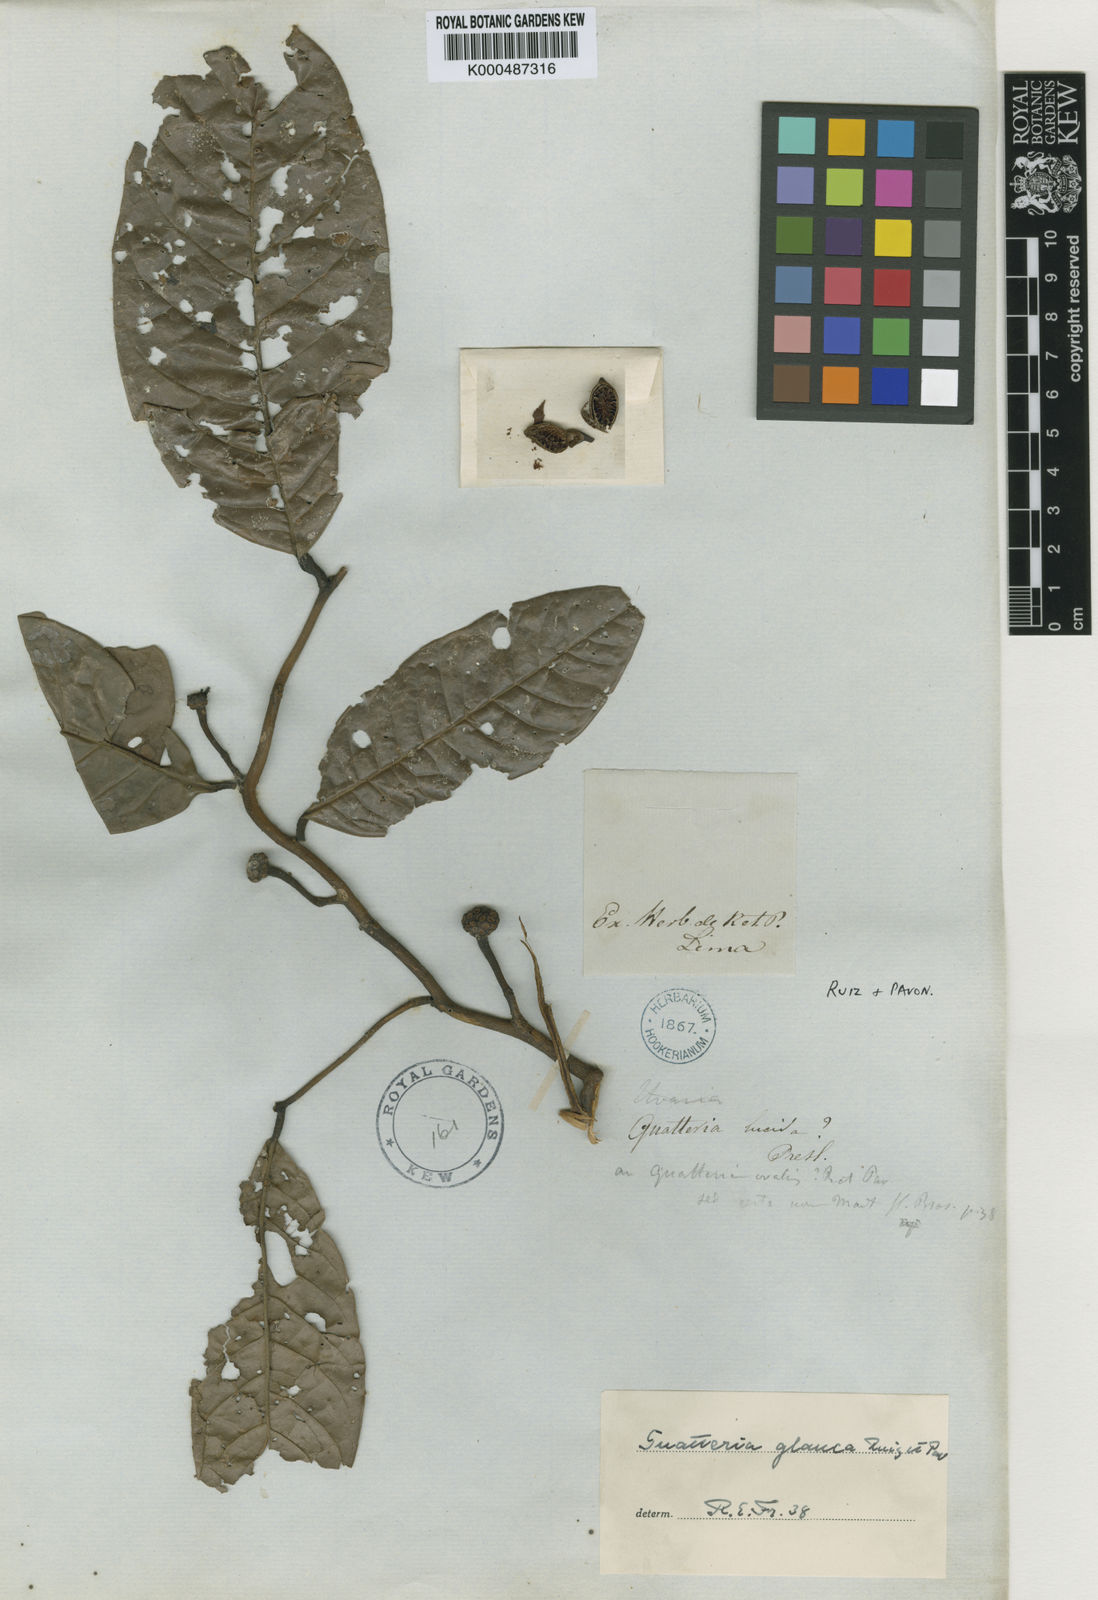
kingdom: Plantae
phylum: Tracheophyta
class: Magnoliopsida
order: Magnoliales
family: Annonaceae
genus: Guatteria
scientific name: Guatteria punctata
